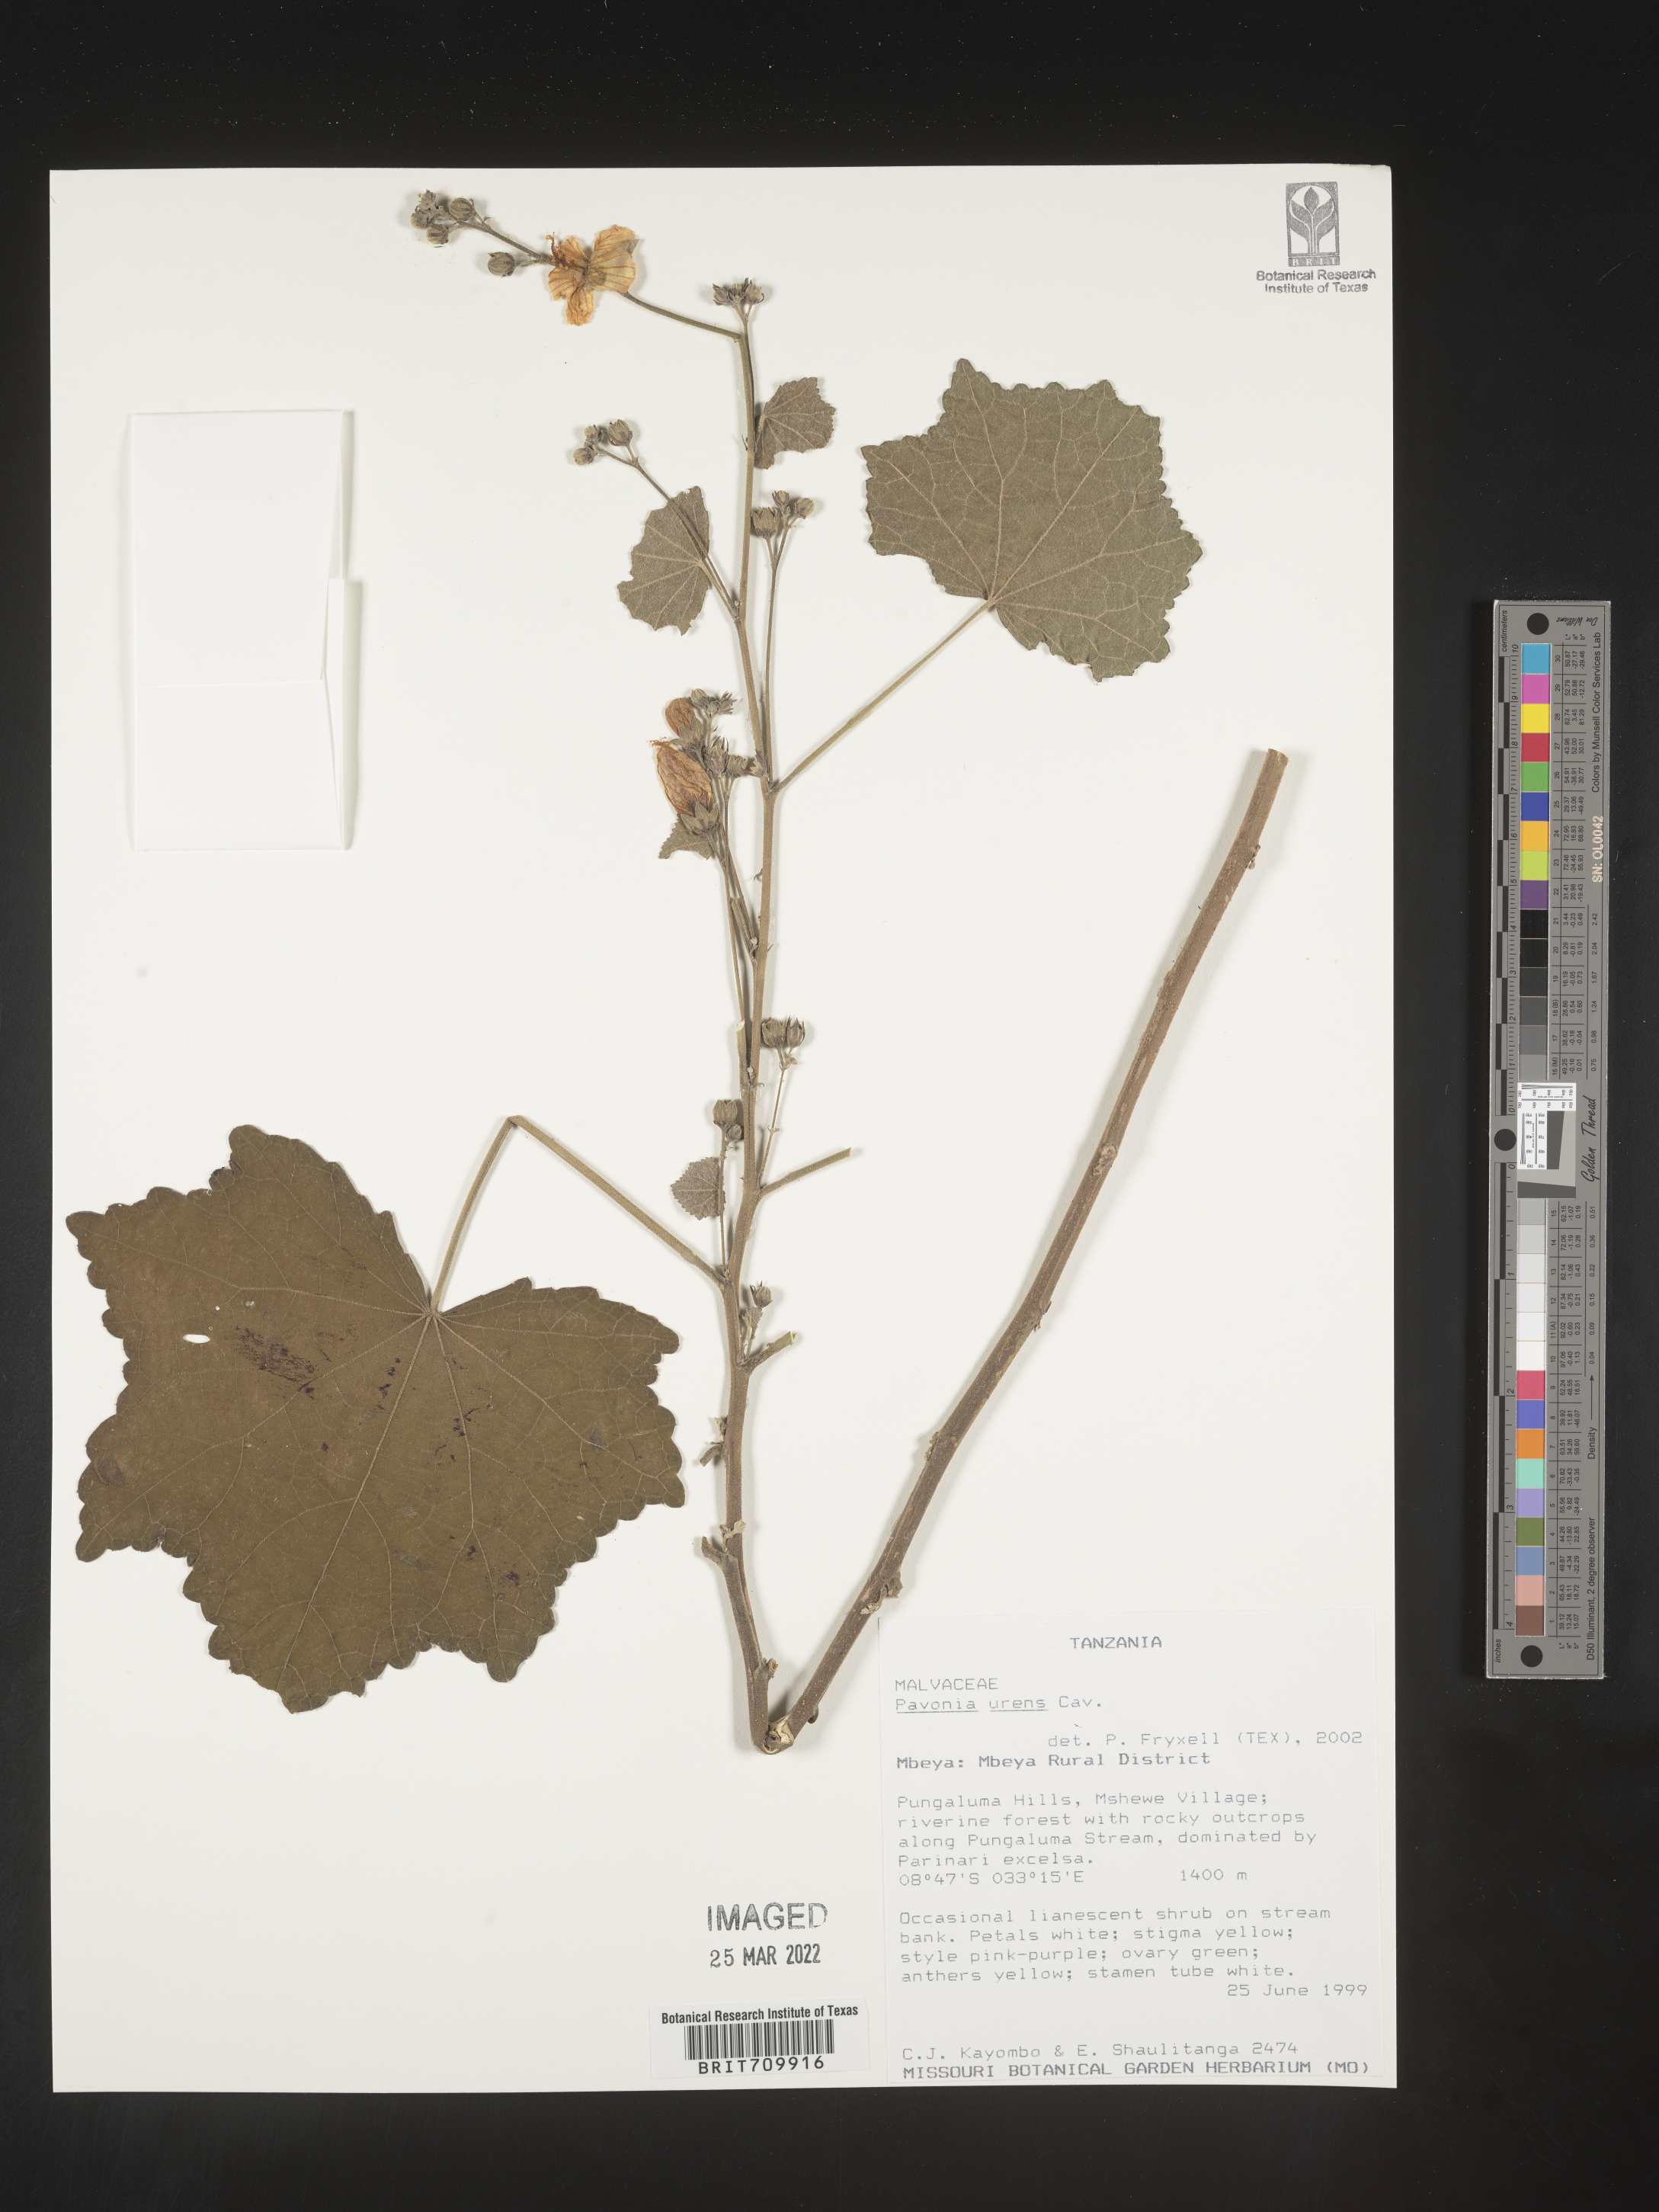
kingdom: Plantae
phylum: Tracheophyta
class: Magnoliopsida
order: Malvales
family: Malvaceae
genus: Pavonia
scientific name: Pavonia
